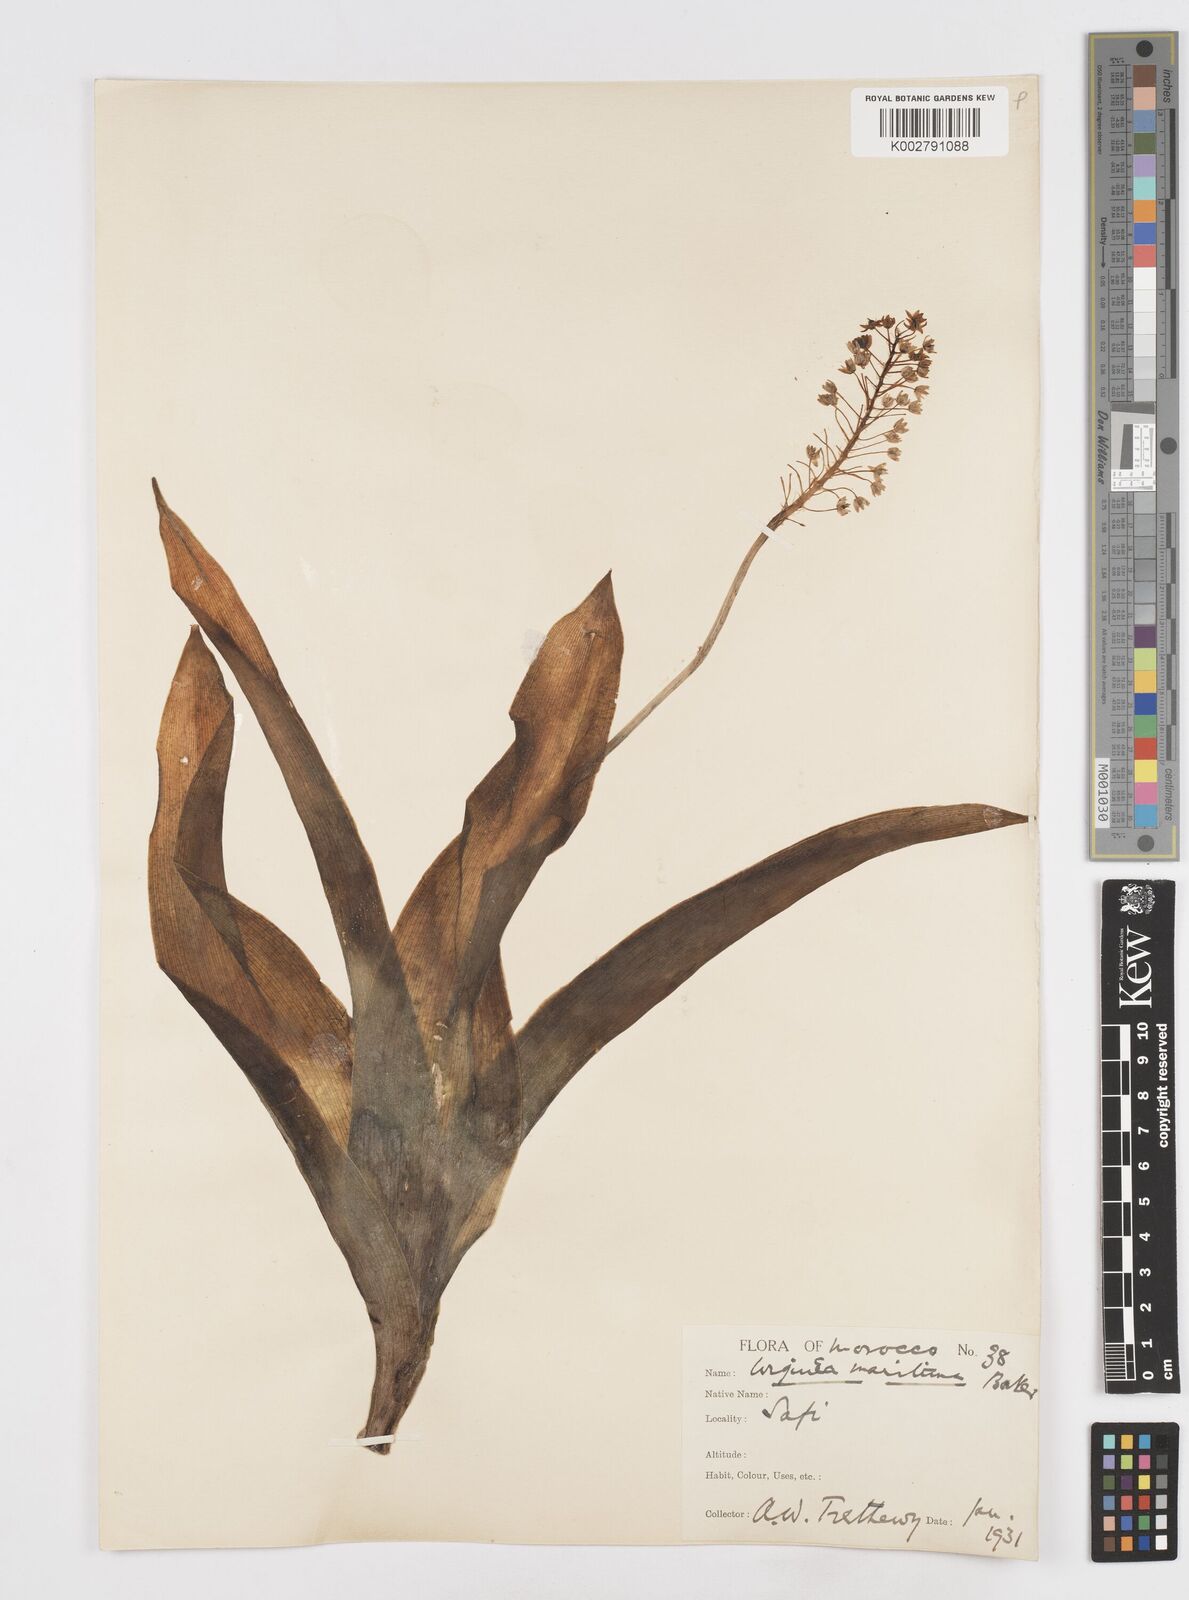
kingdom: Plantae
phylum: Tracheophyta
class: Liliopsida
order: Asparagales
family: Asparagaceae
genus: Scilla
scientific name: Scilla latifolia
